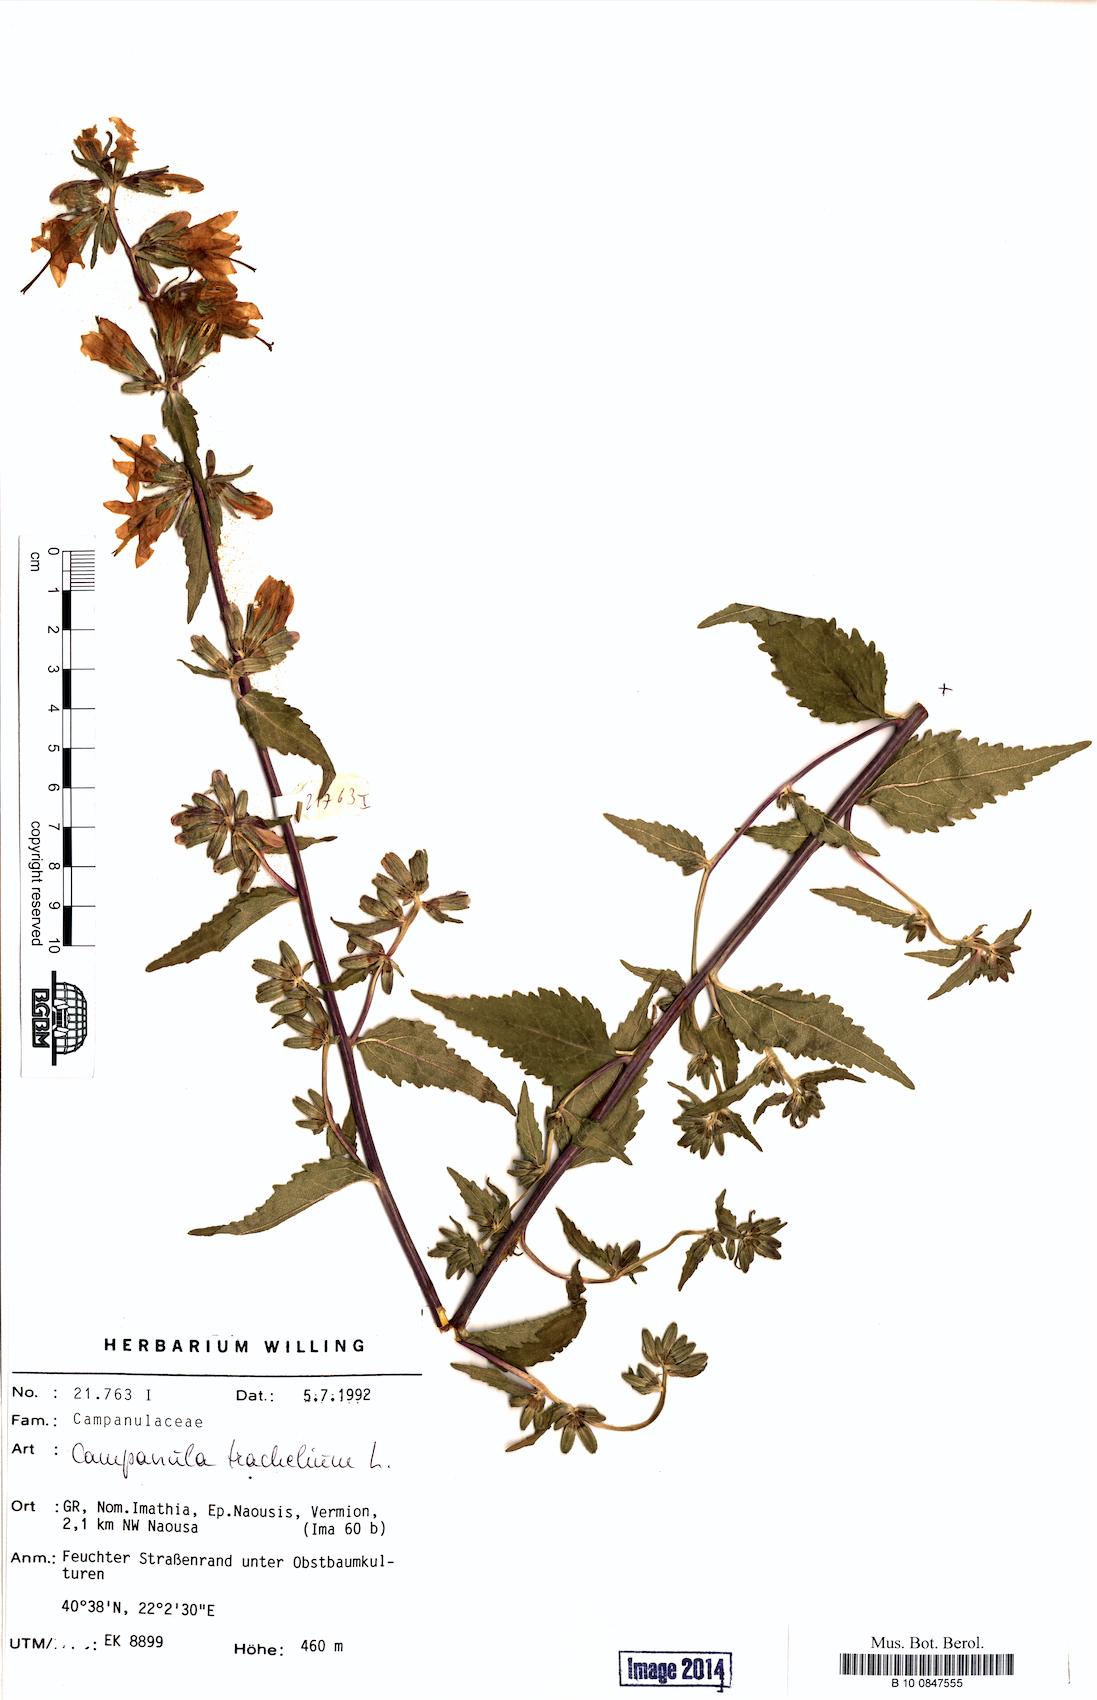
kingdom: Plantae
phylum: Tracheophyta
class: Magnoliopsida
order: Asterales
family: Campanulaceae
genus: Campanula
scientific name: Campanula trachelium
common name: Nettle-leaved bellflower
